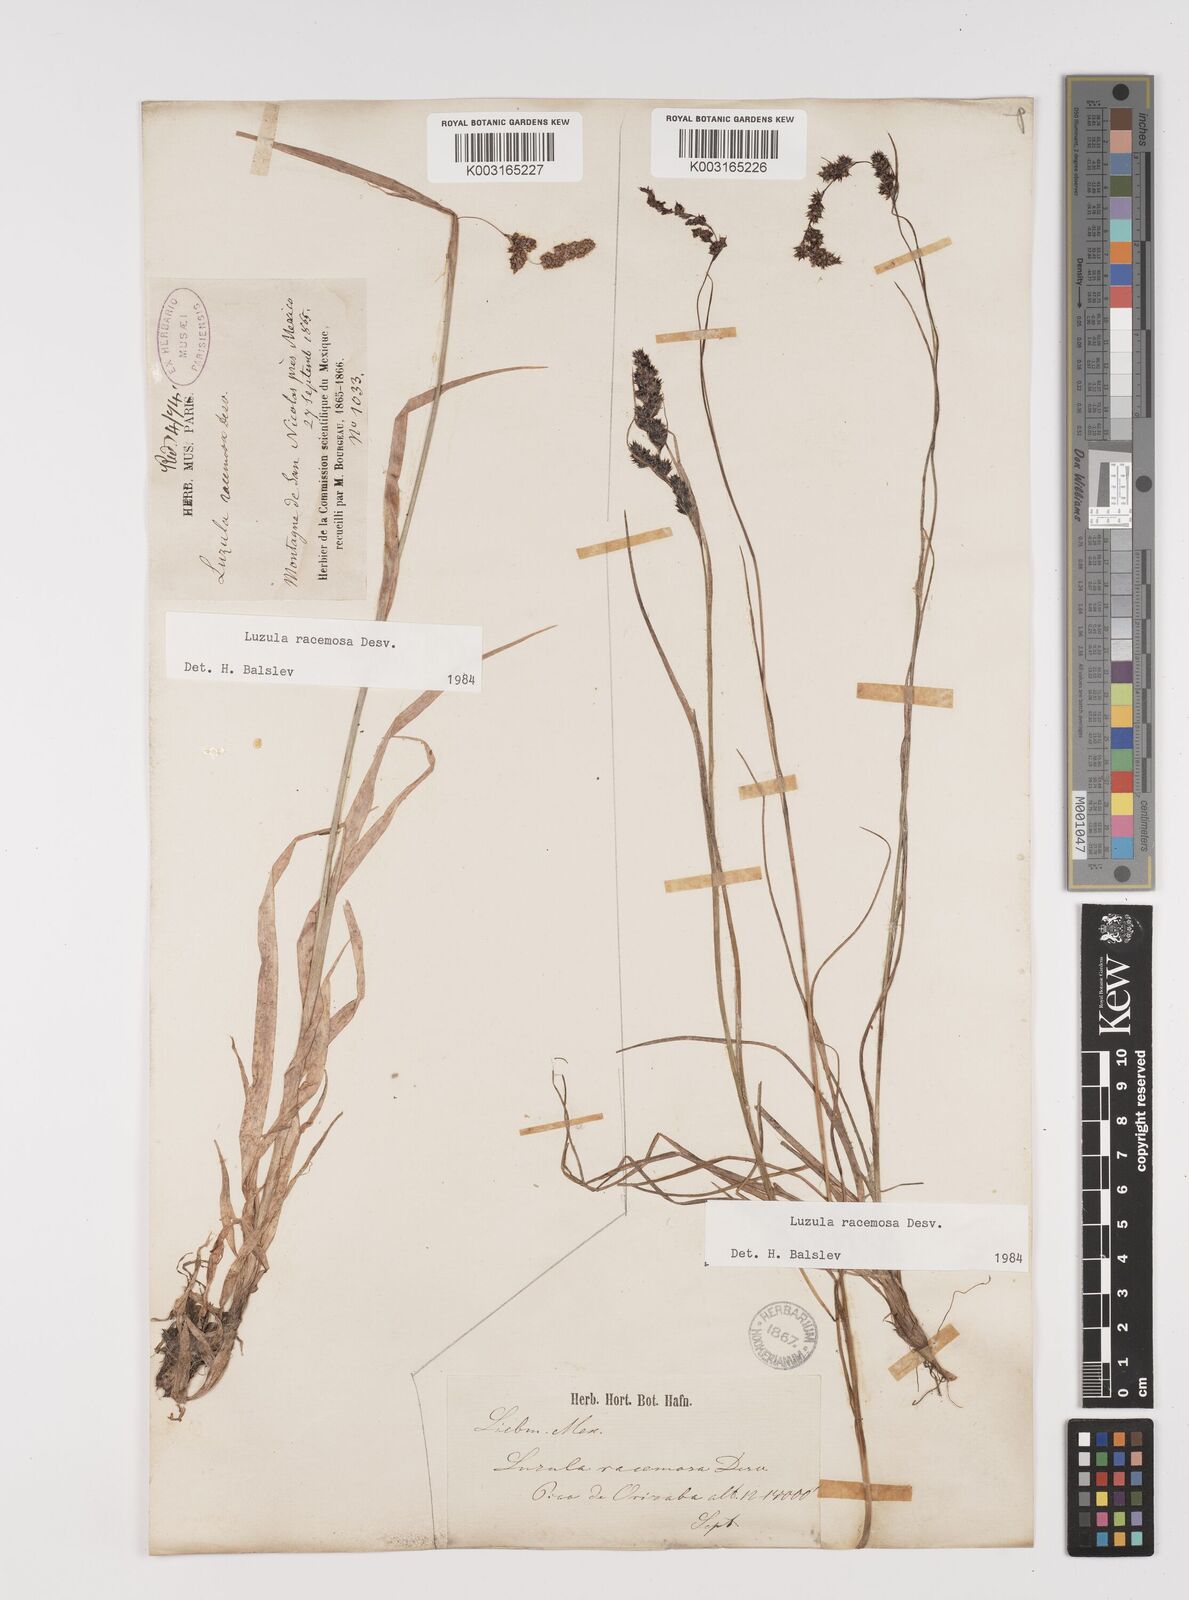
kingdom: Plantae
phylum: Tracheophyta
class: Liliopsida
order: Poales
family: Juncaceae
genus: Luzula
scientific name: Luzula racemosa
